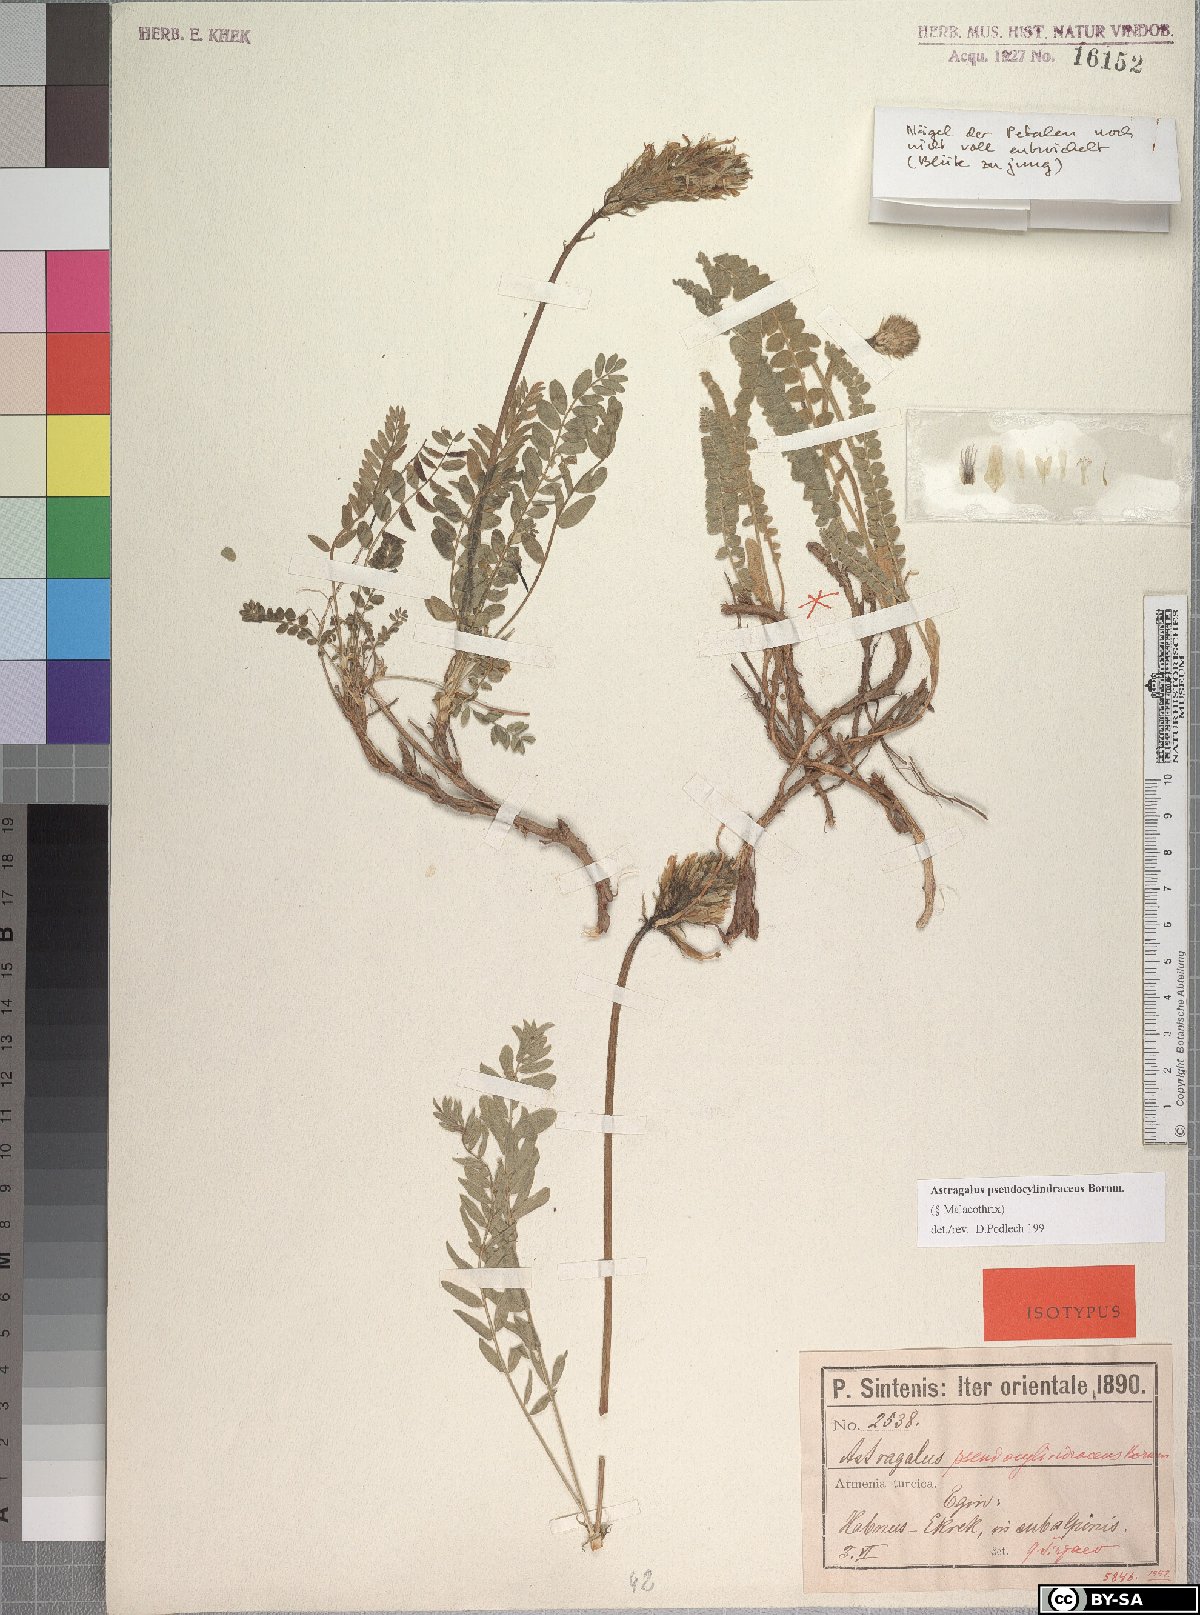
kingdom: Plantae
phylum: Tracheophyta
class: Magnoliopsida
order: Fabales
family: Fabaceae
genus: Astragalus
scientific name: Astragalus pseudocylindraceus
